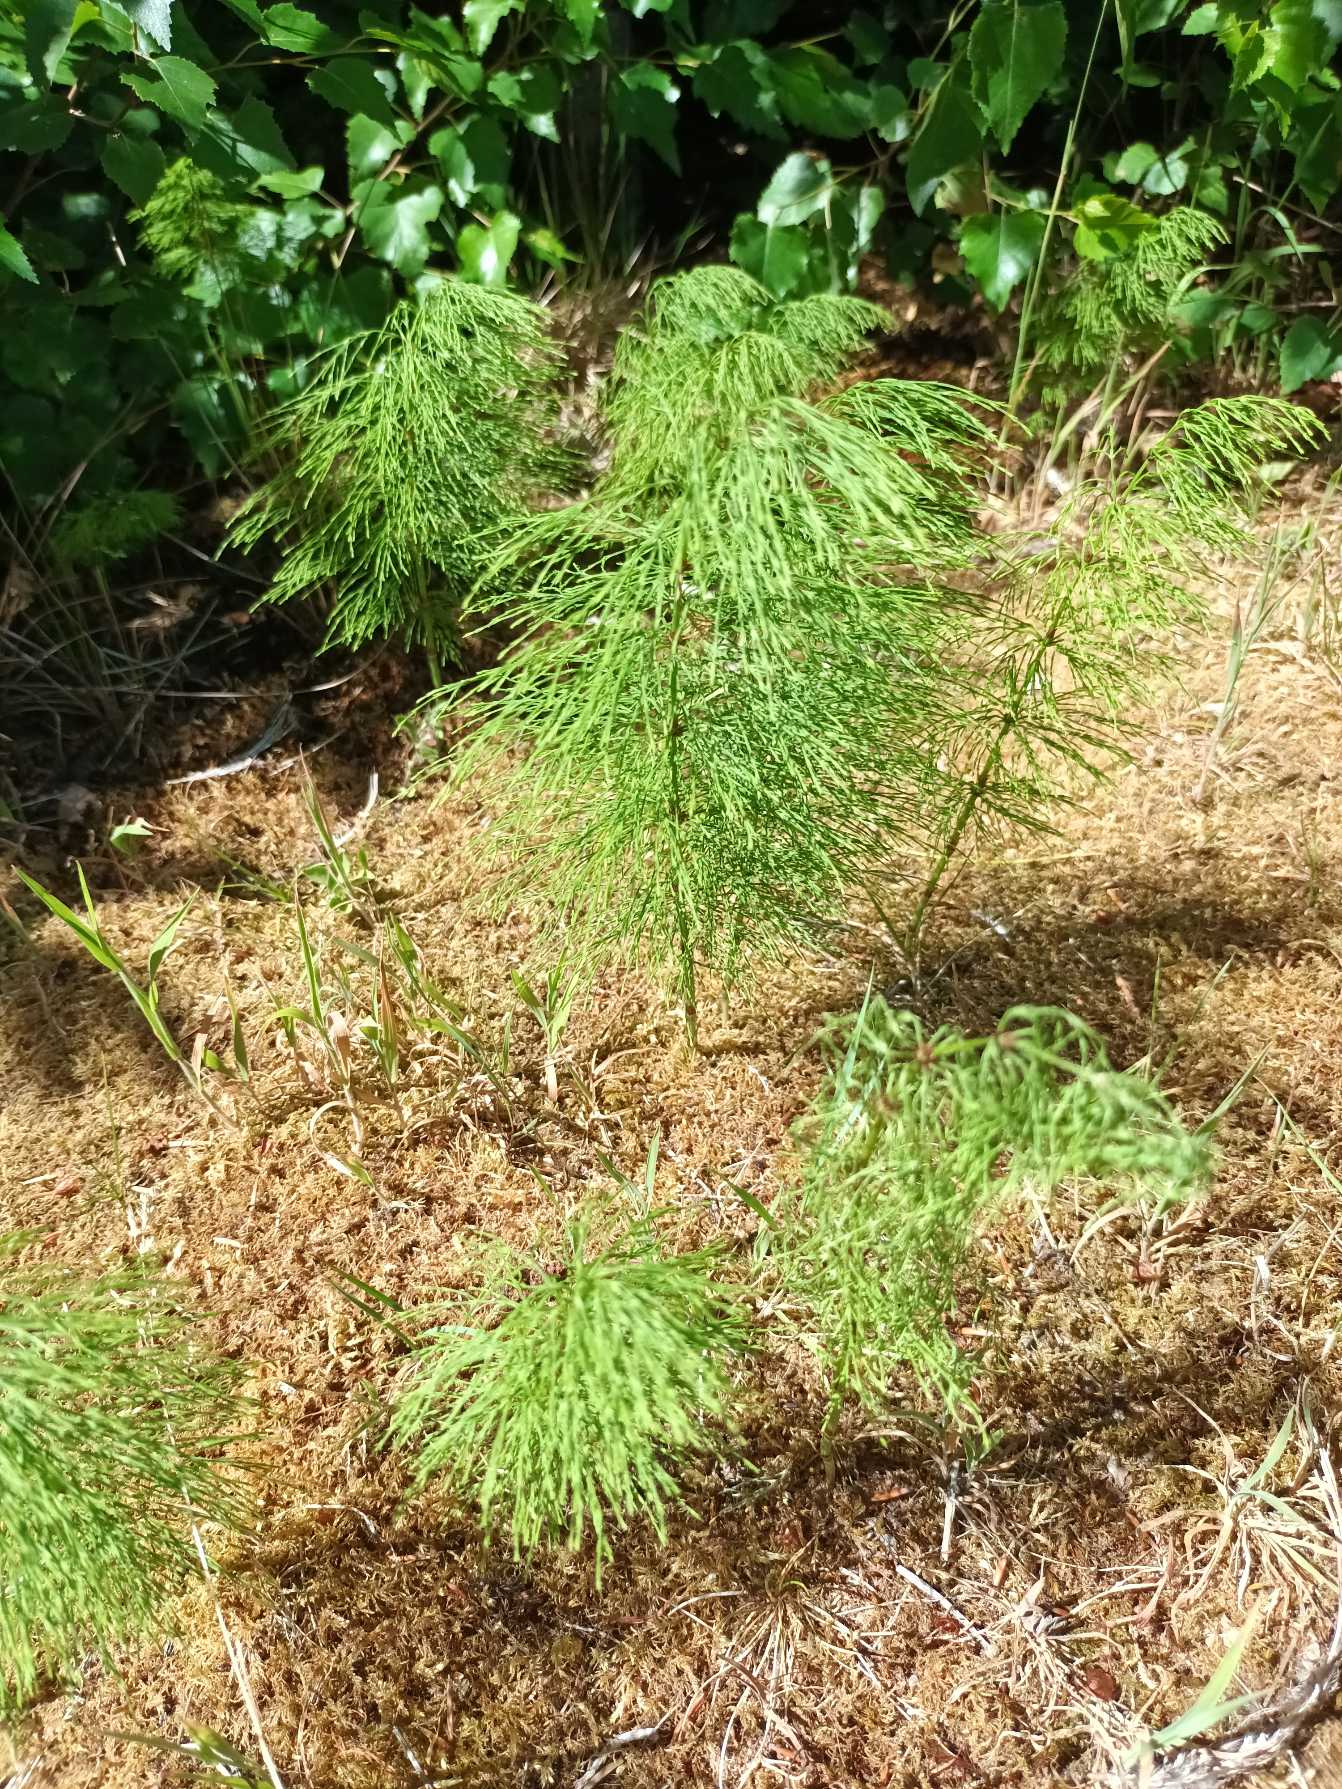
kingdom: Plantae
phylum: Tracheophyta
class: Polypodiopsida
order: Equisetales
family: Equisetaceae
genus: Equisetum
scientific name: Equisetum sylvaticum
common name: Skov-padderok
